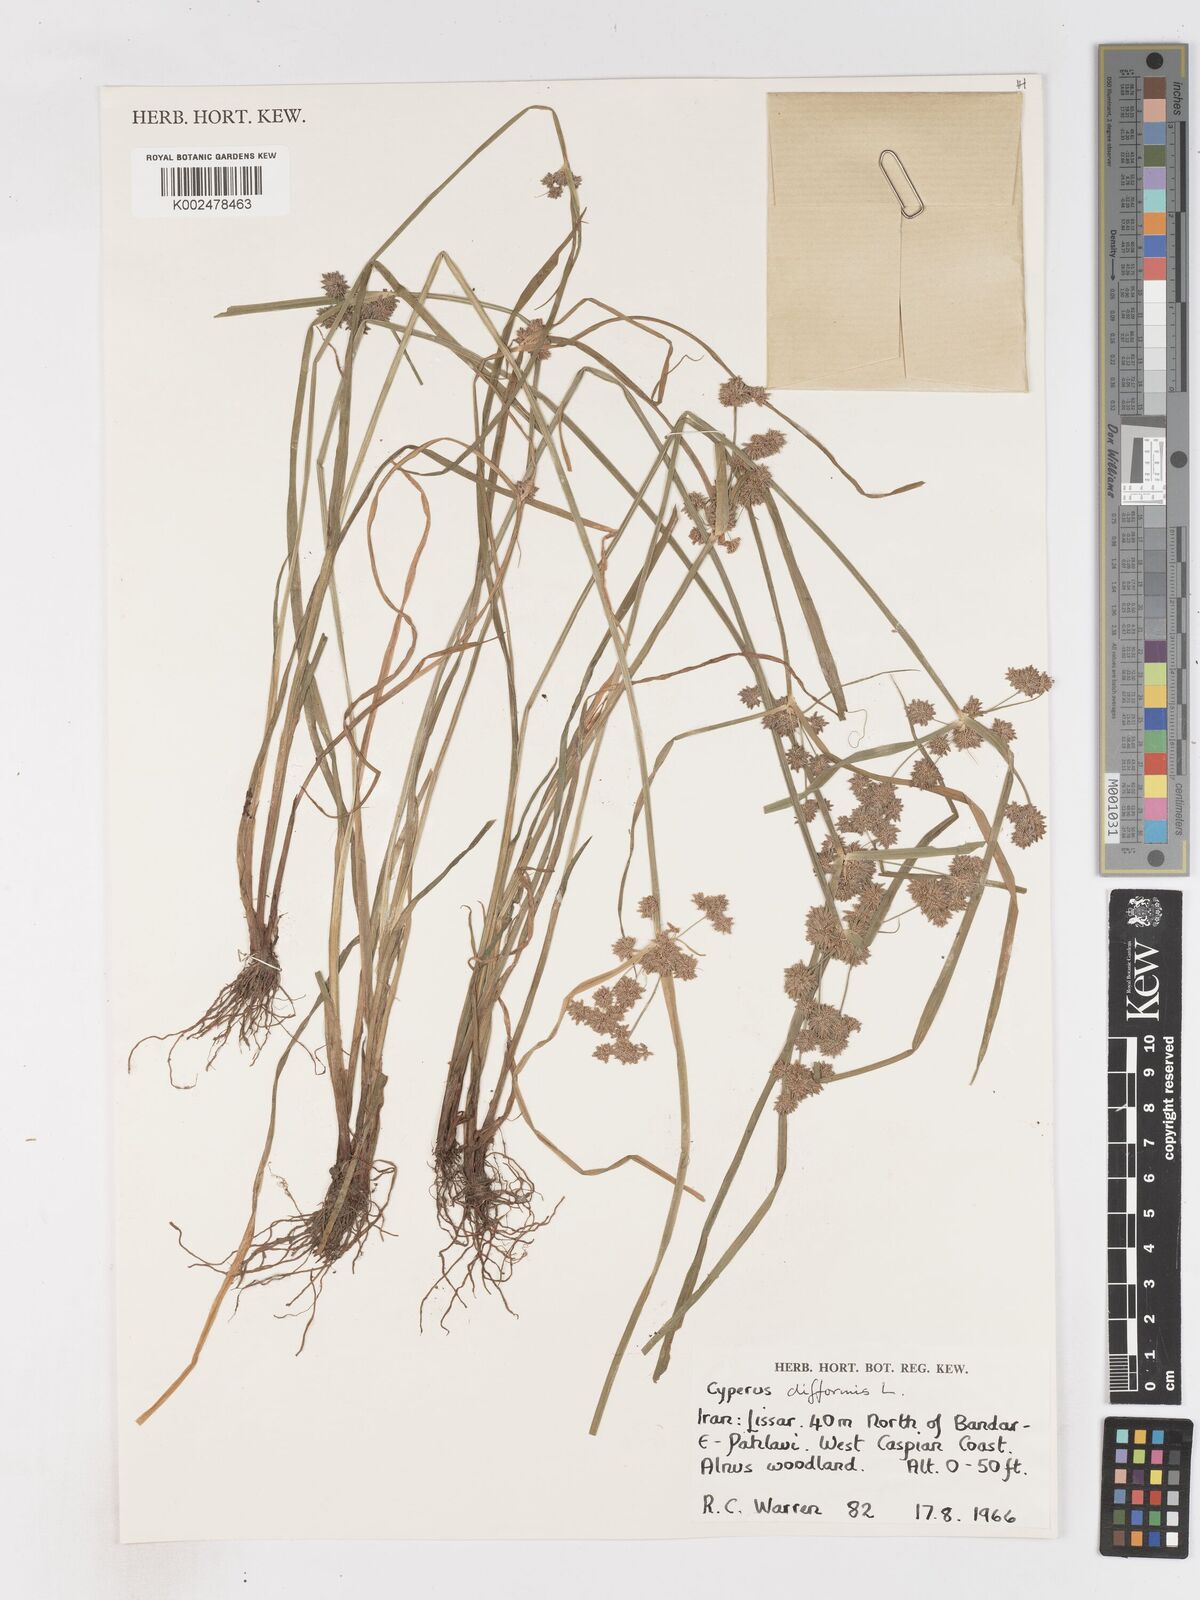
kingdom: Plantae
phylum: Tracheophyta
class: Liliopsida
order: Poales
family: Cyperaceae
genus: Cyperus
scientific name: Cyperus difformis
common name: Variable flatsedge
